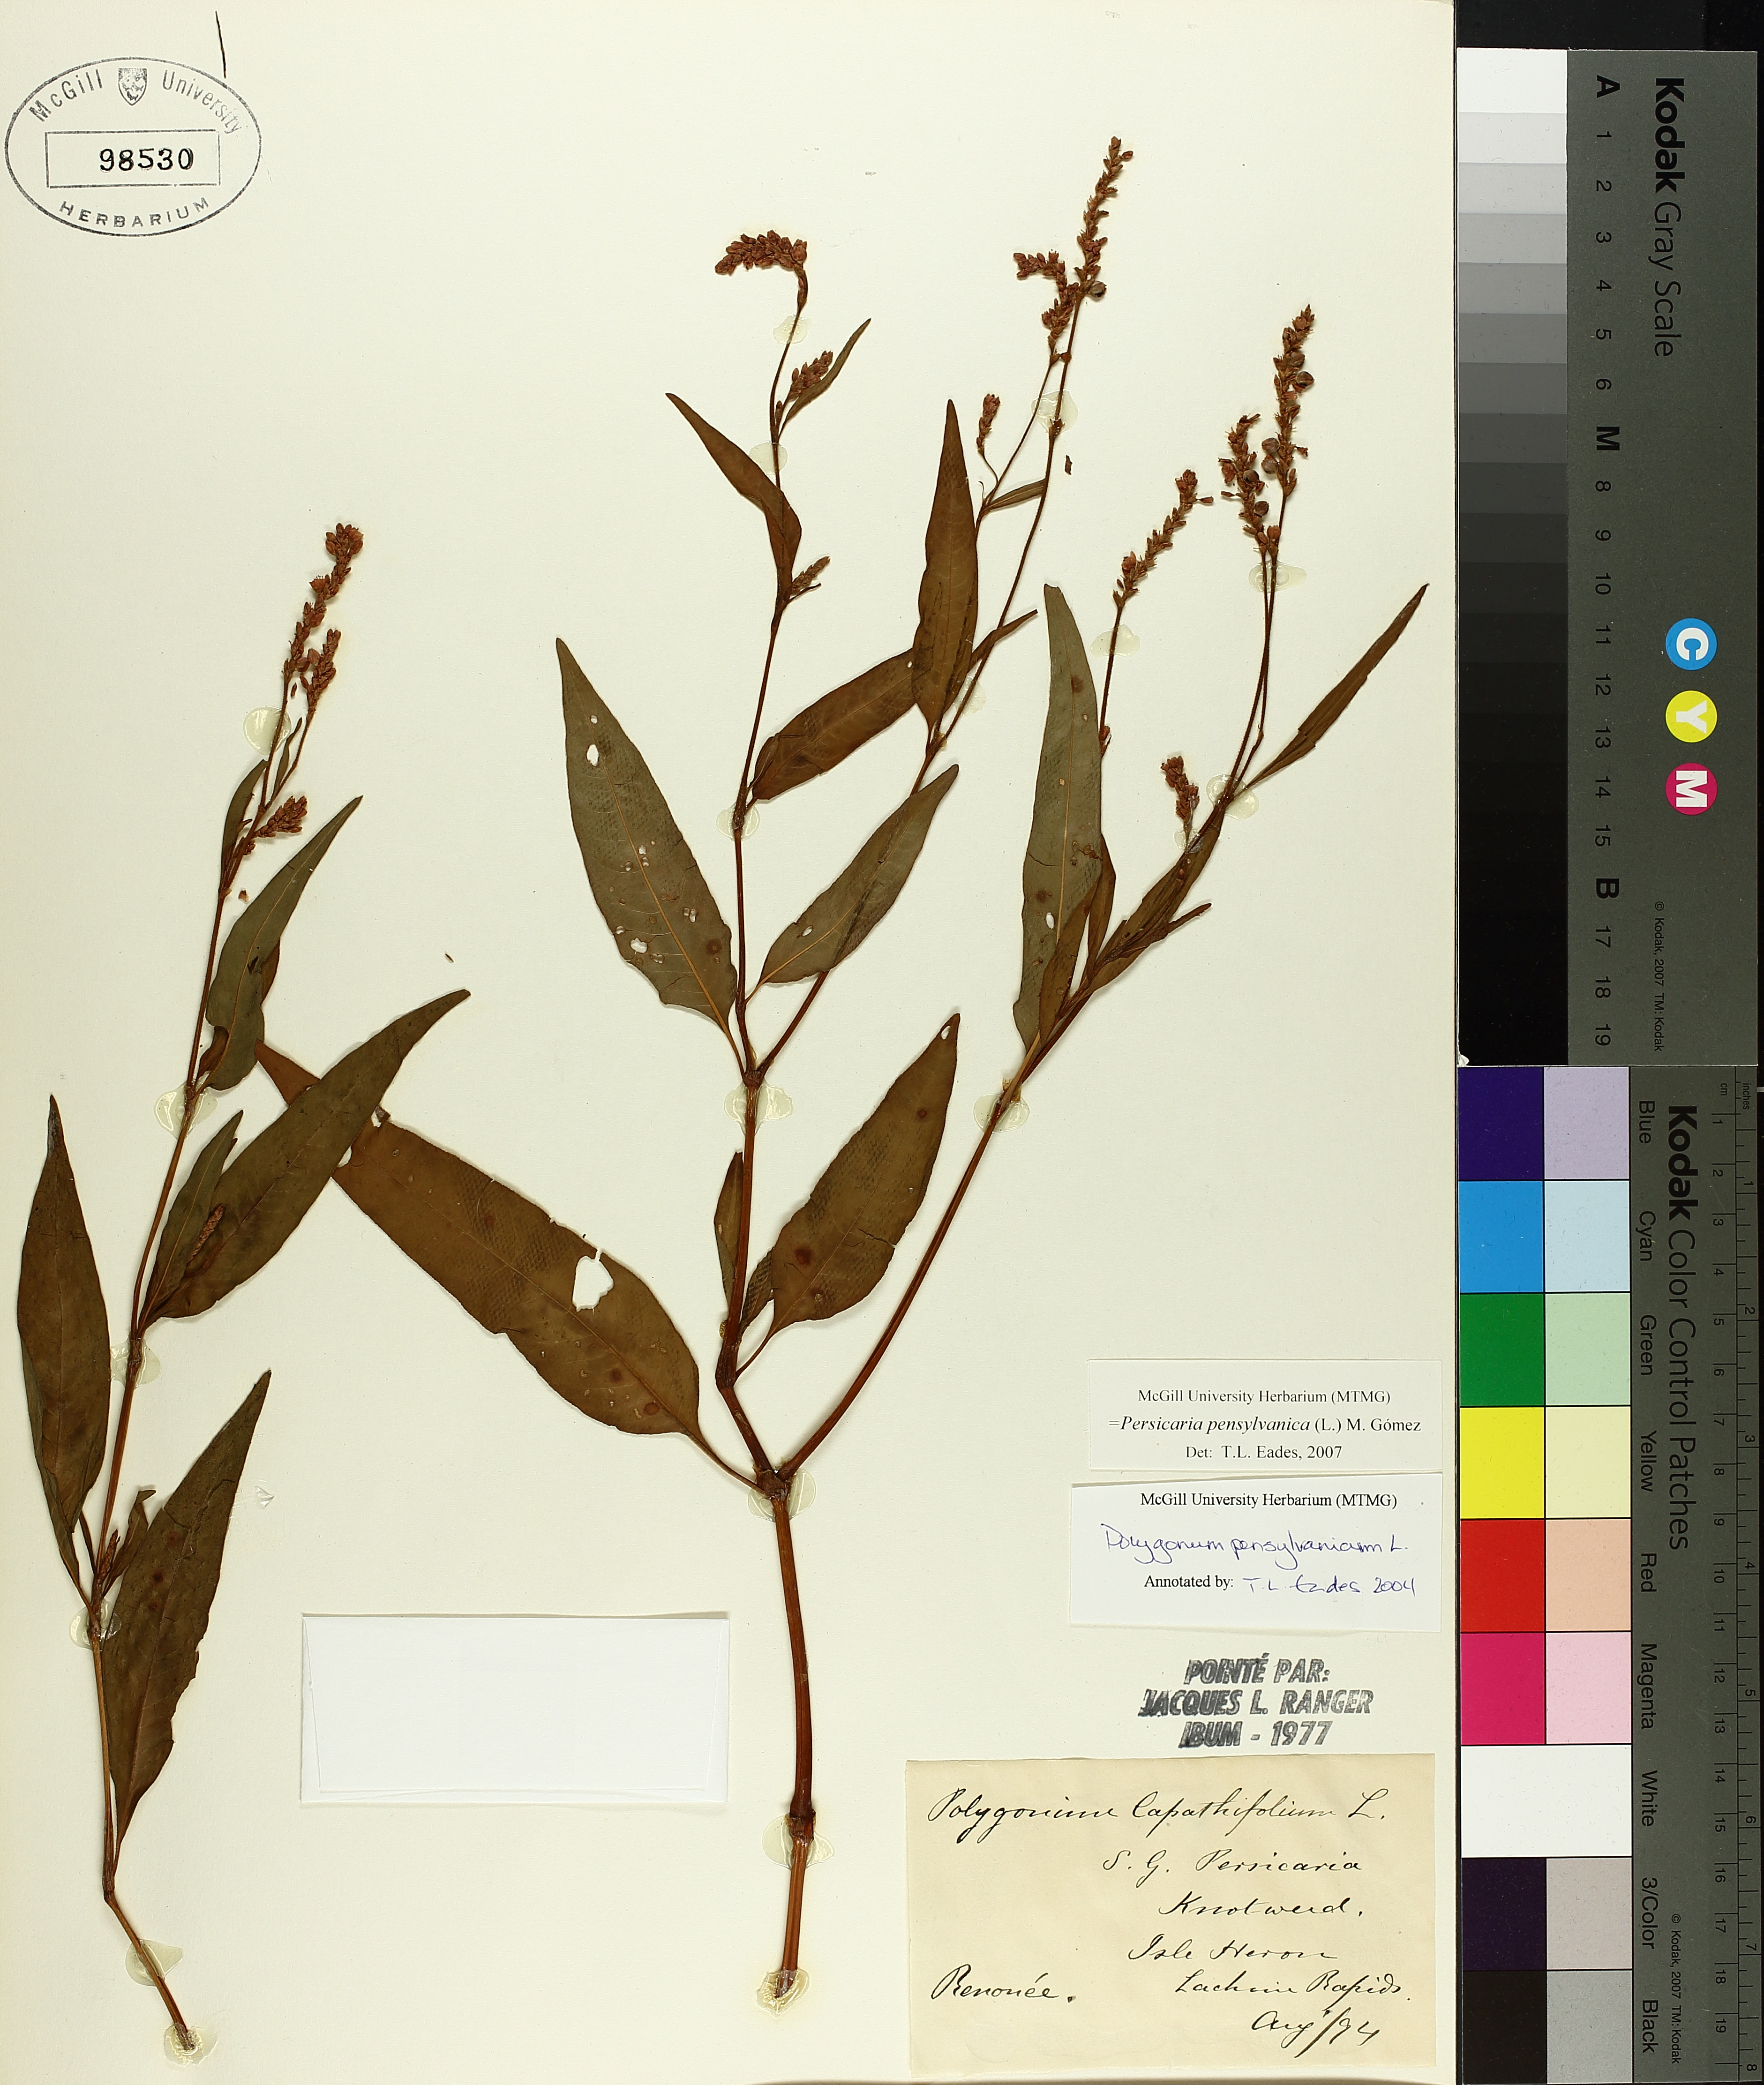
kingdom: Plantae
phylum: Tracheophyta
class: Magnoliopsida
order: Caryophyllales
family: Polygonaceae
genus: Persicaria
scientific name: Persicaria bungeana
